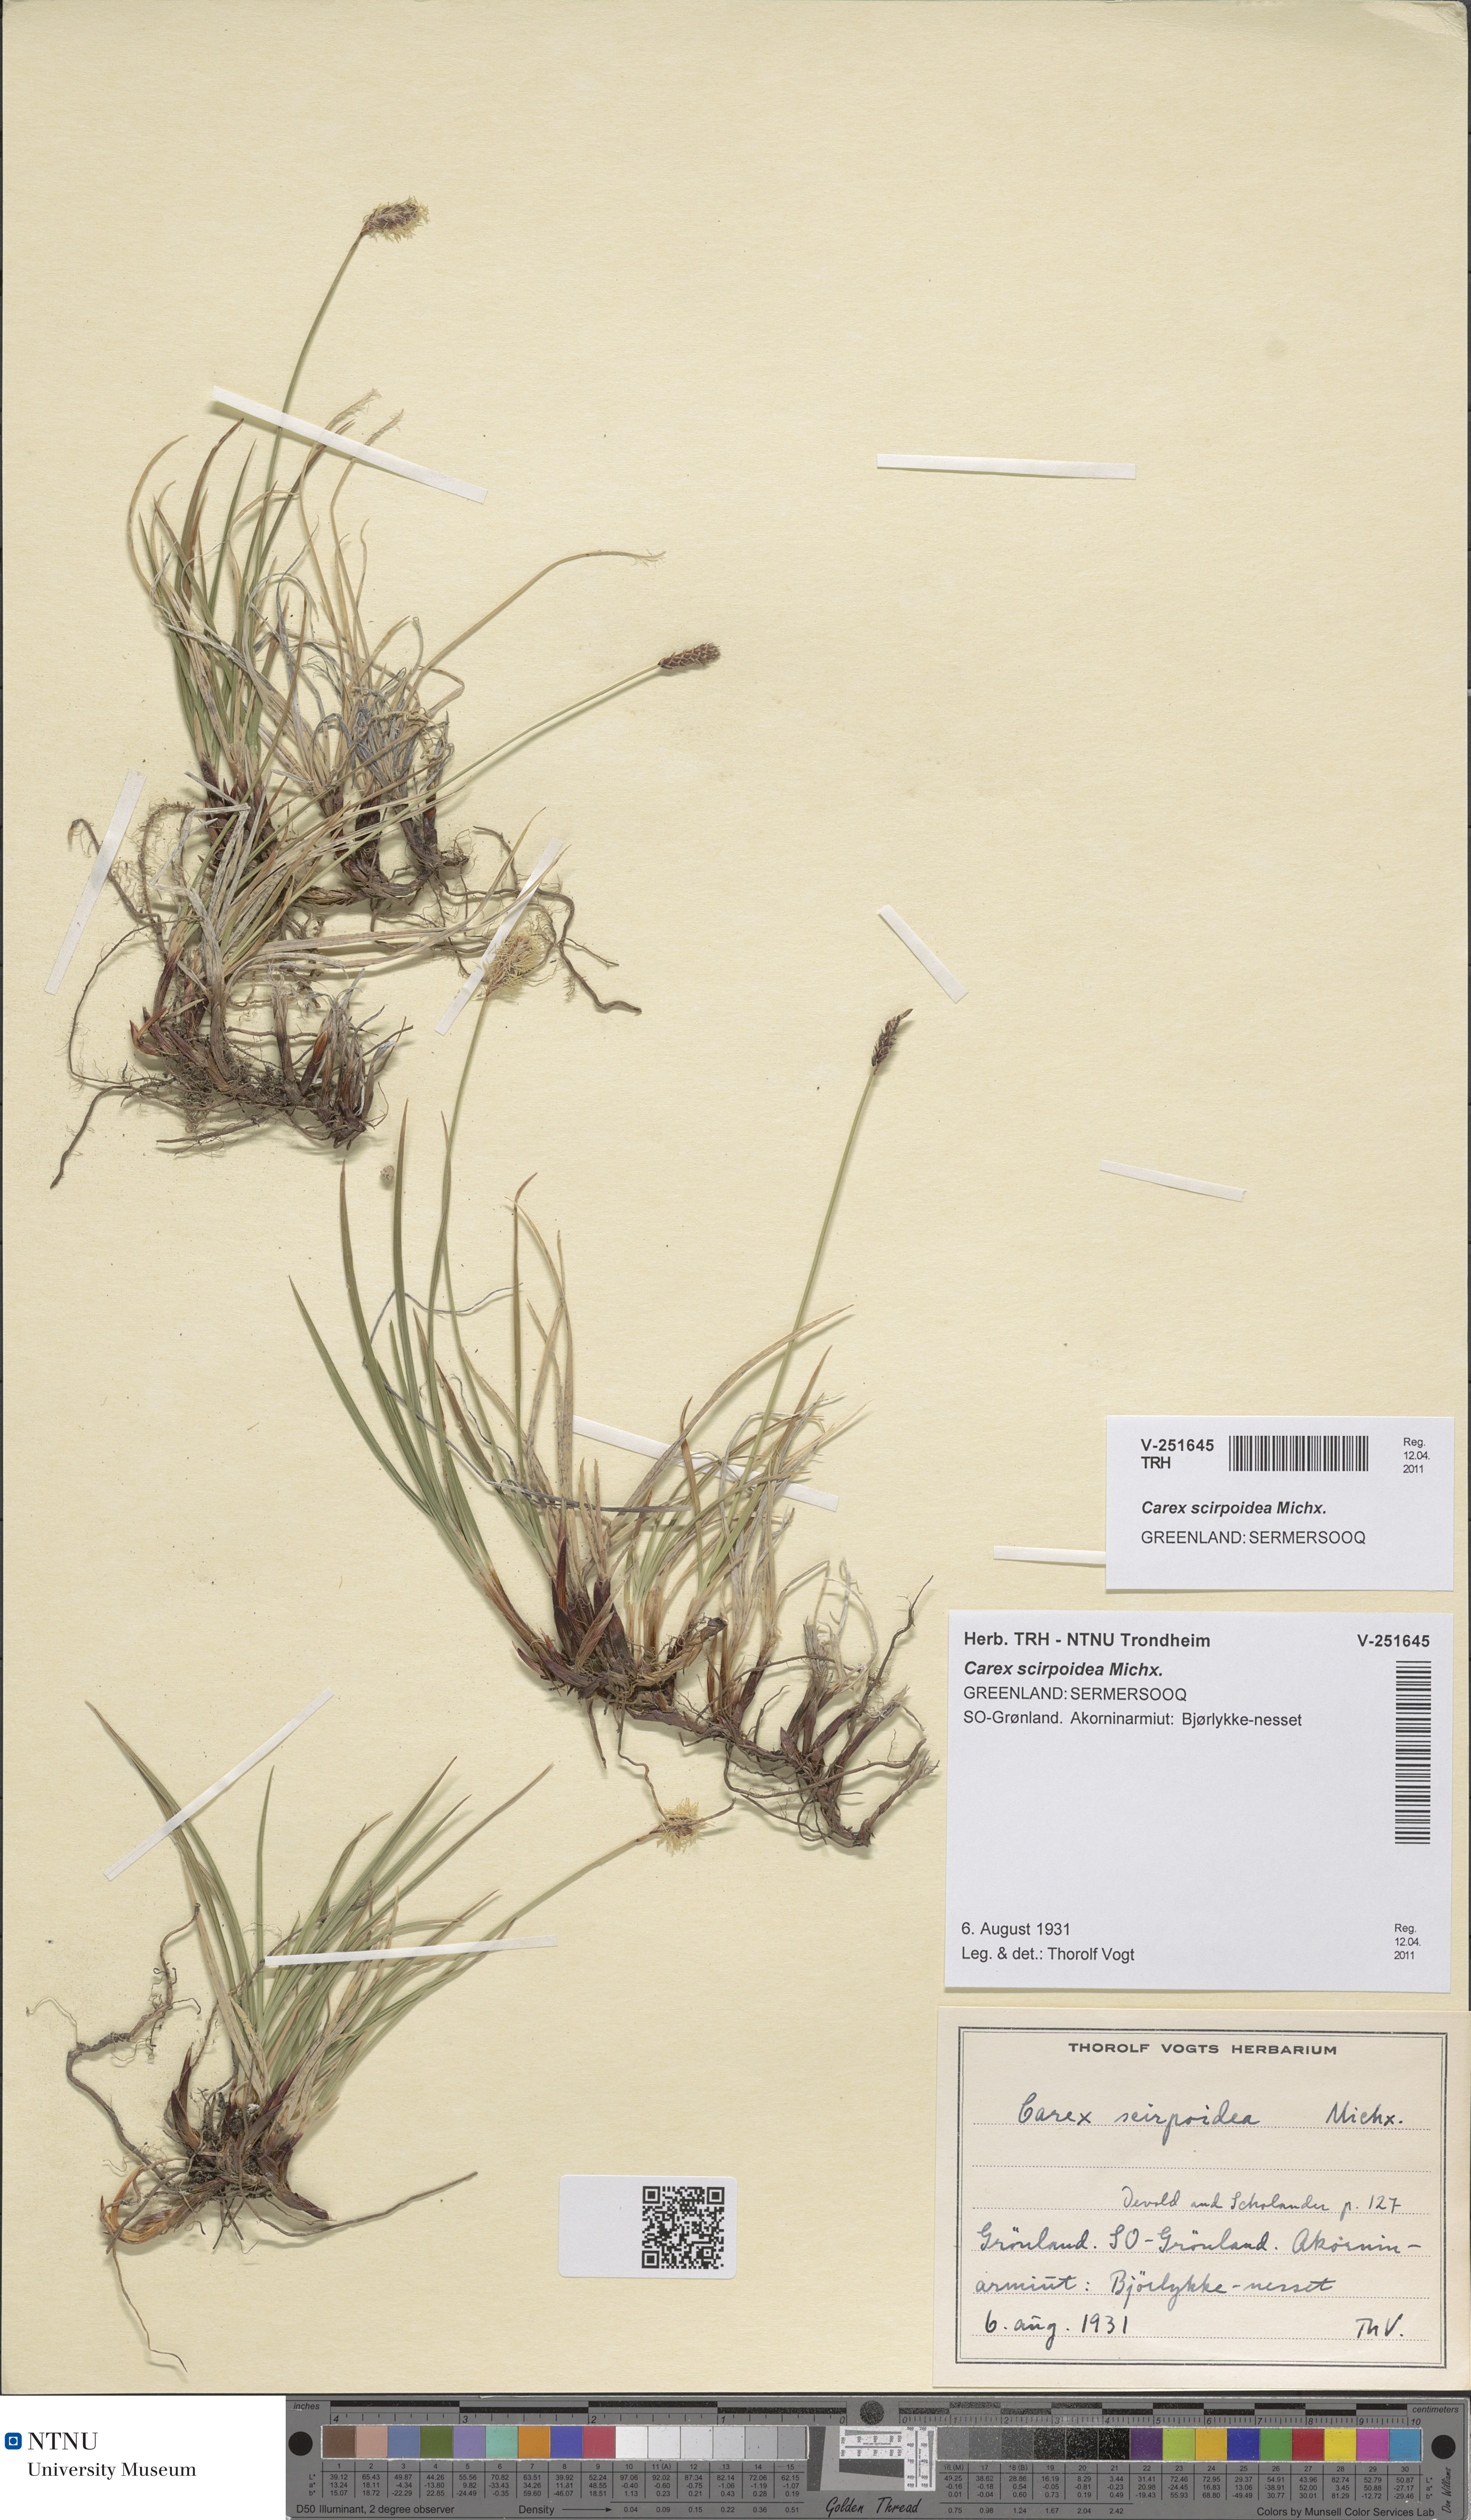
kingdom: Plantae
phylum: Tracheophyta
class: Liliopsida
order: Poales
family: Cyperaceae
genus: Carex
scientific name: Carex scirpoidea
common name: Canada single-spike sedge
